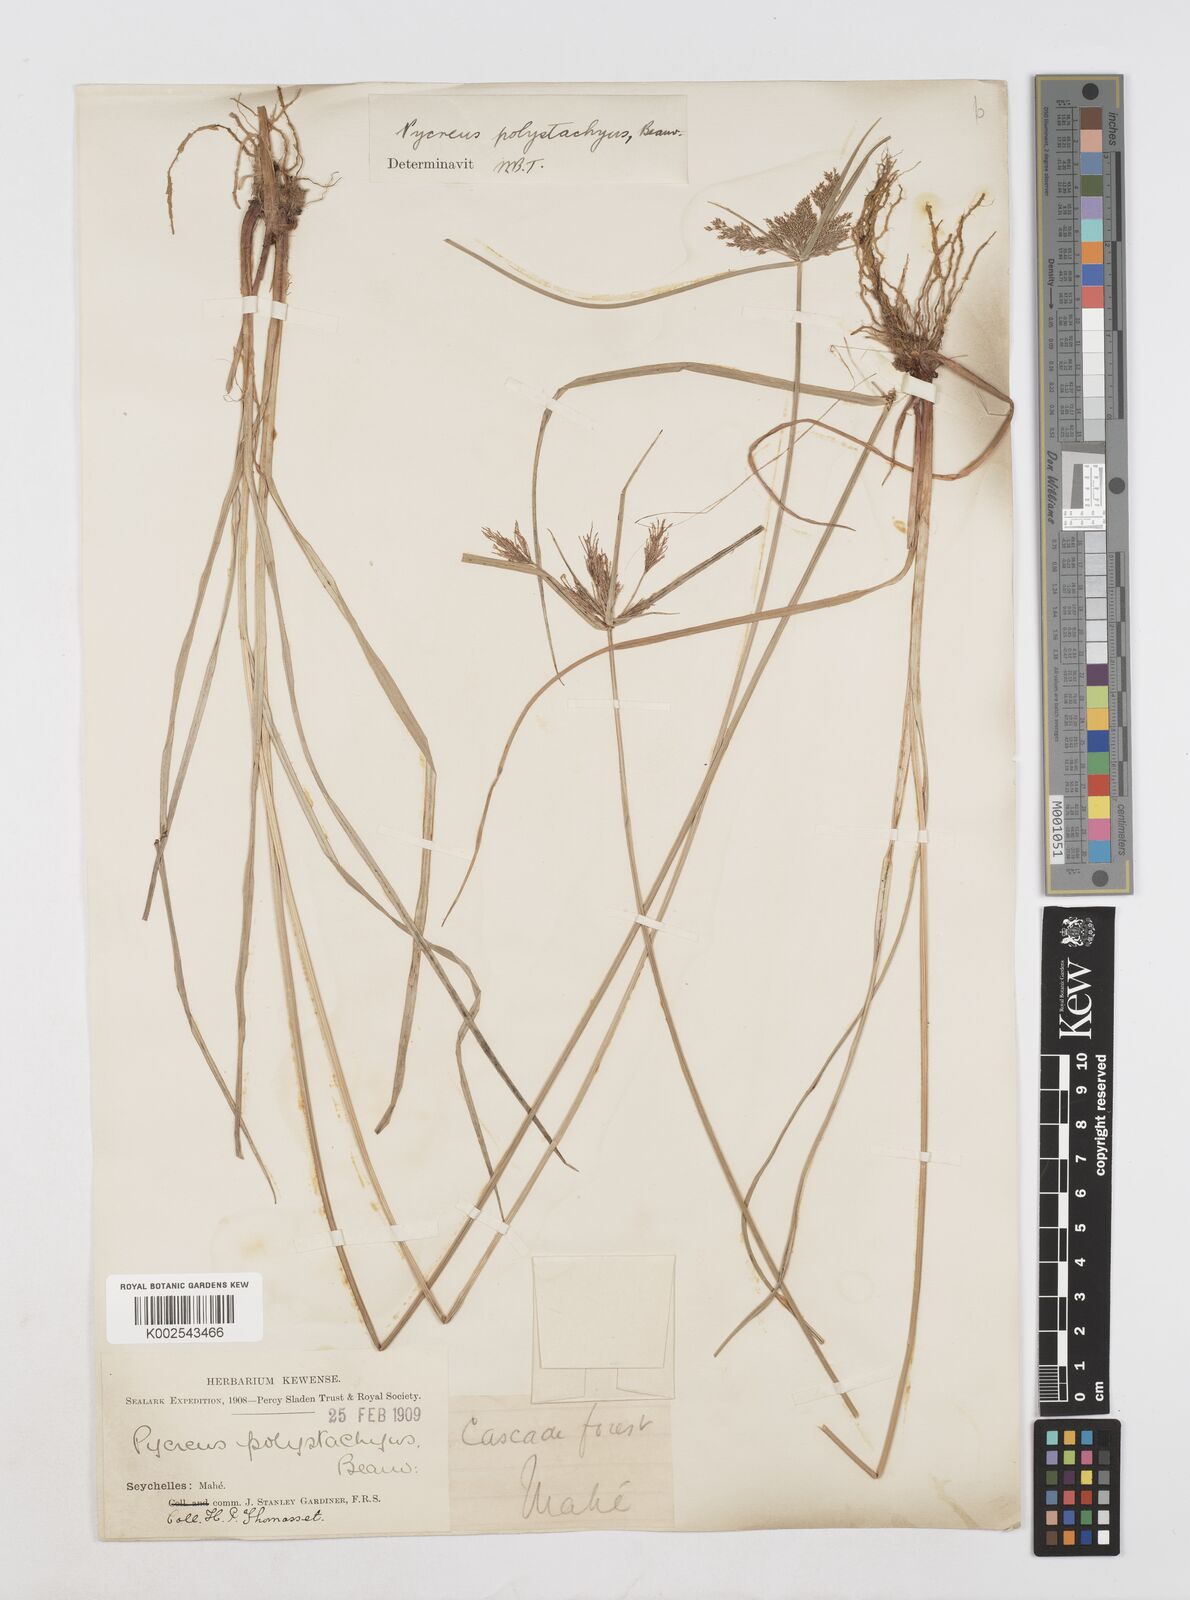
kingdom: Plantae
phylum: Tracheophyta
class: Liliopsida
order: Poales
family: Cyperaceae
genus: Cyperus
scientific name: Cyperus polystachyos
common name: Bunchy flat sedge
